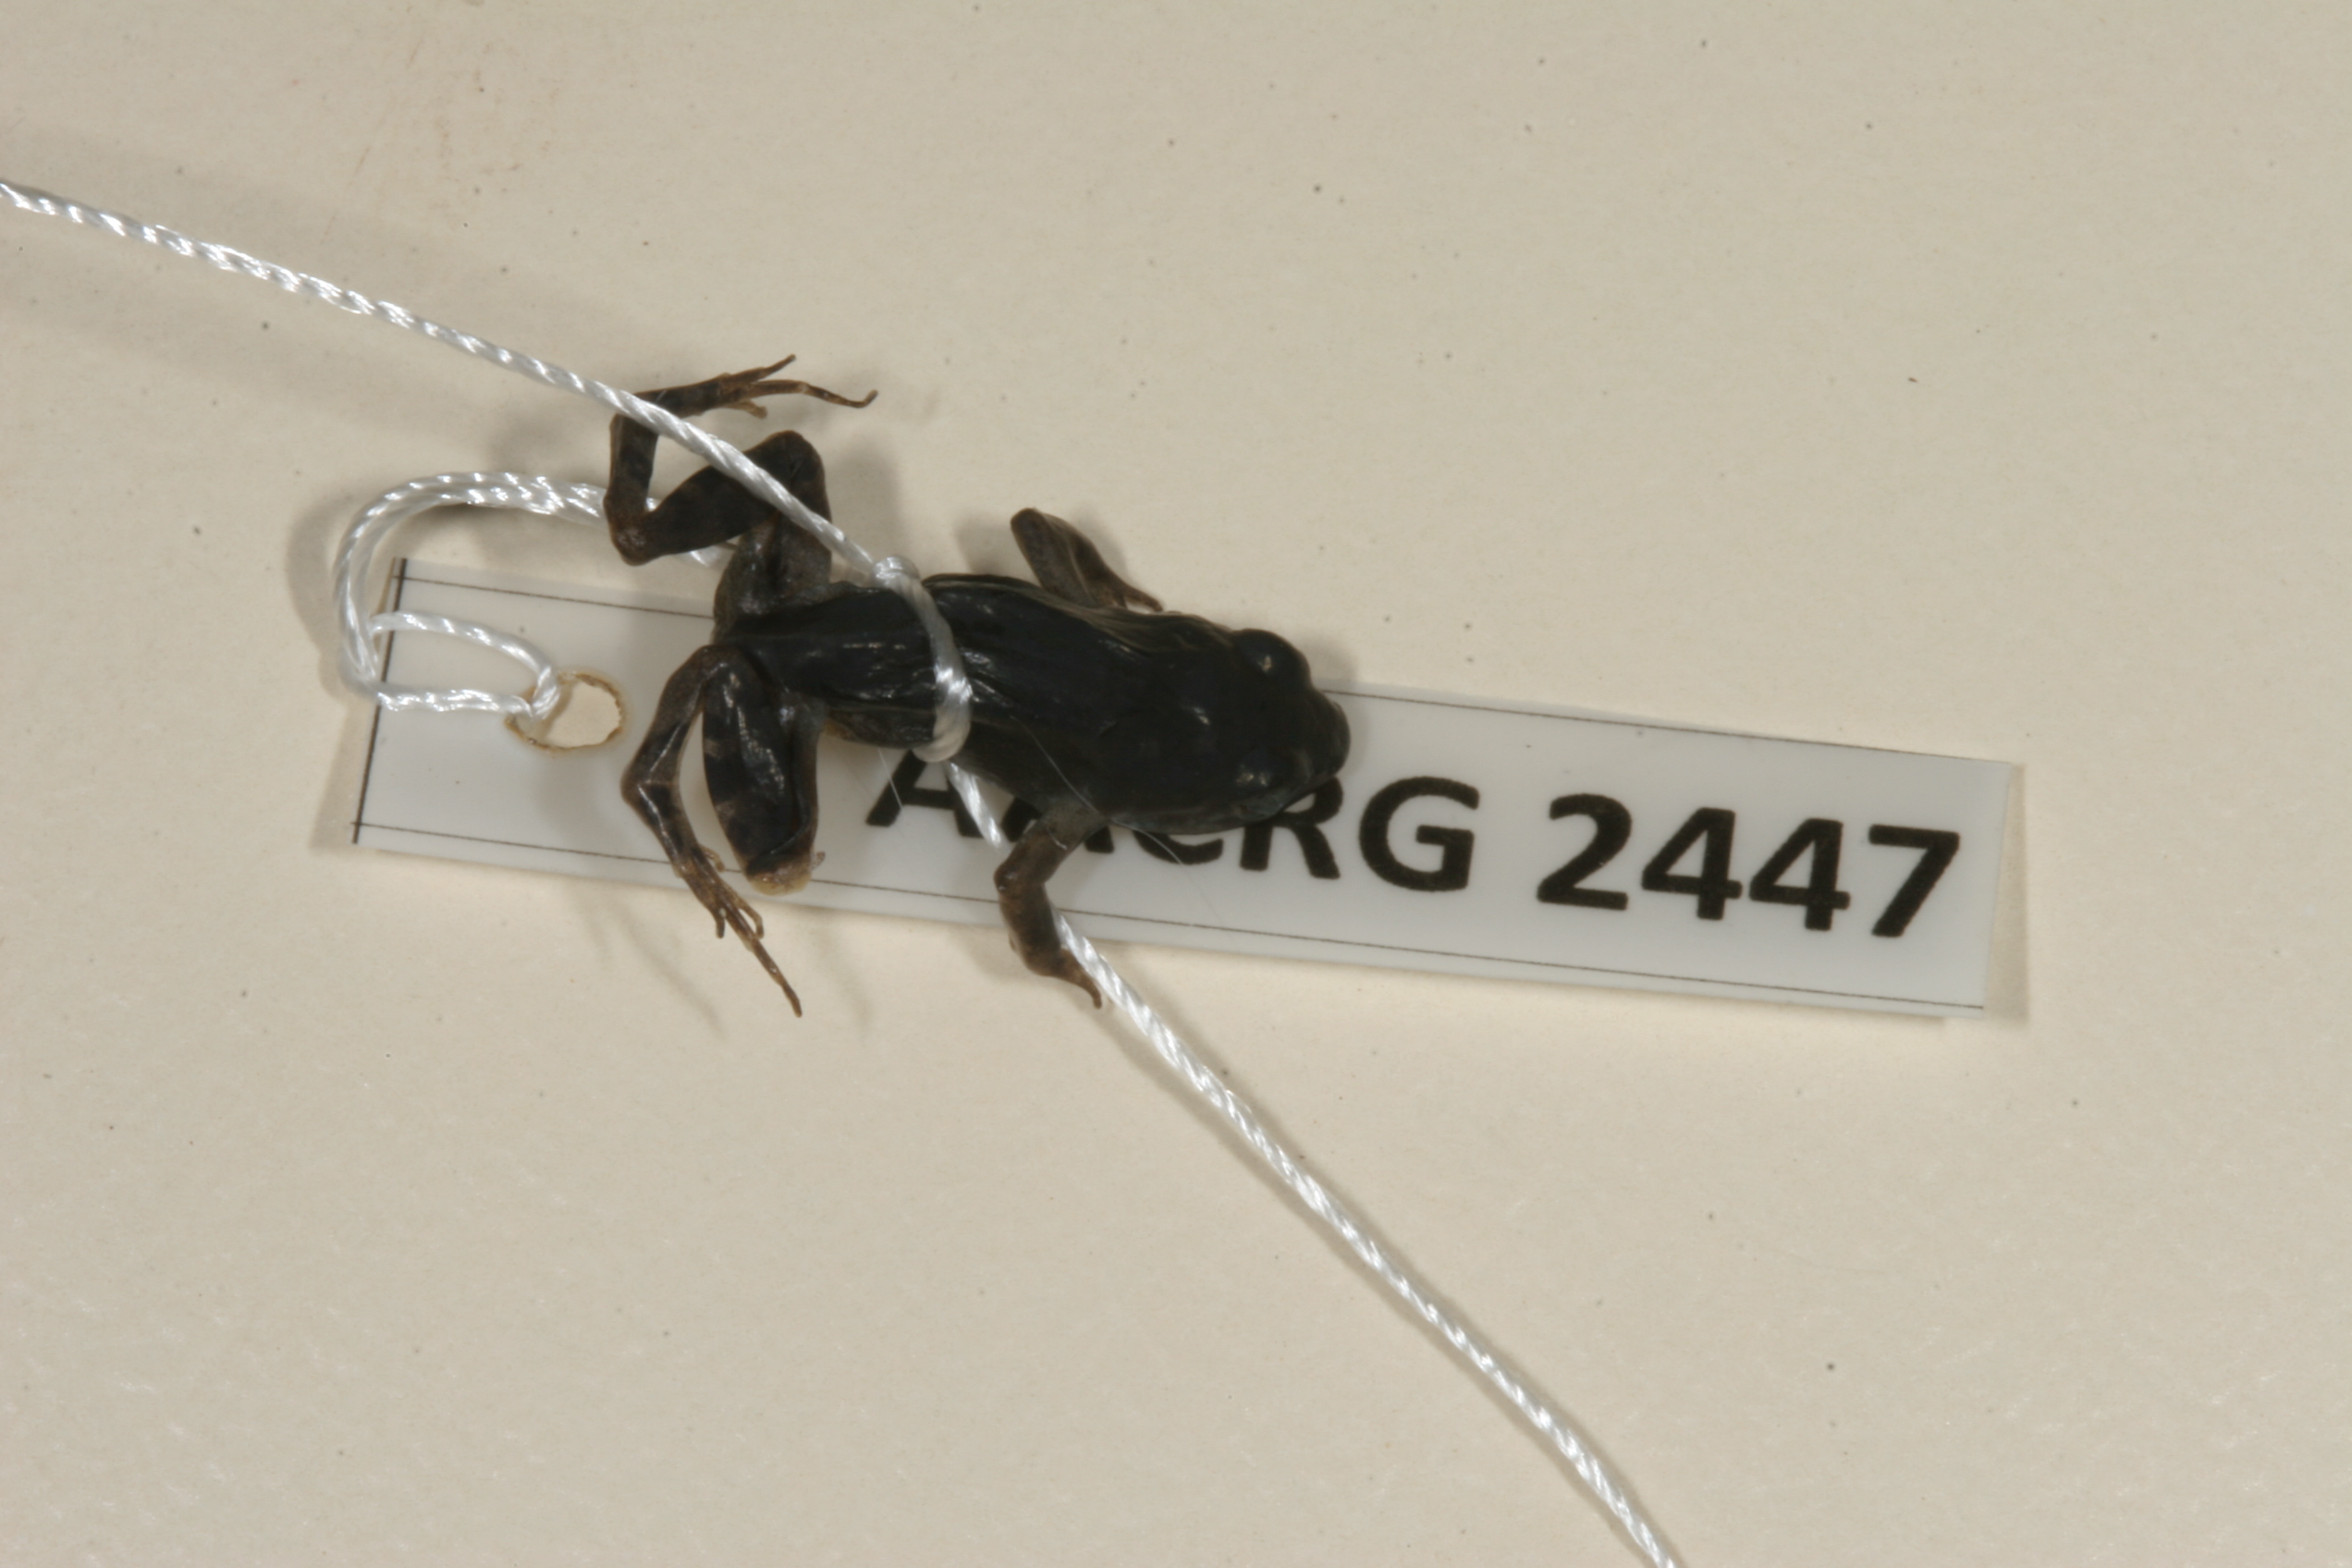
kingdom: Animalia
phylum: Chordata
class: Amphibia
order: Anura
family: Pyxicephalidae
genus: Cacosternum
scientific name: Cacosternum parvum
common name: Mountain caco
